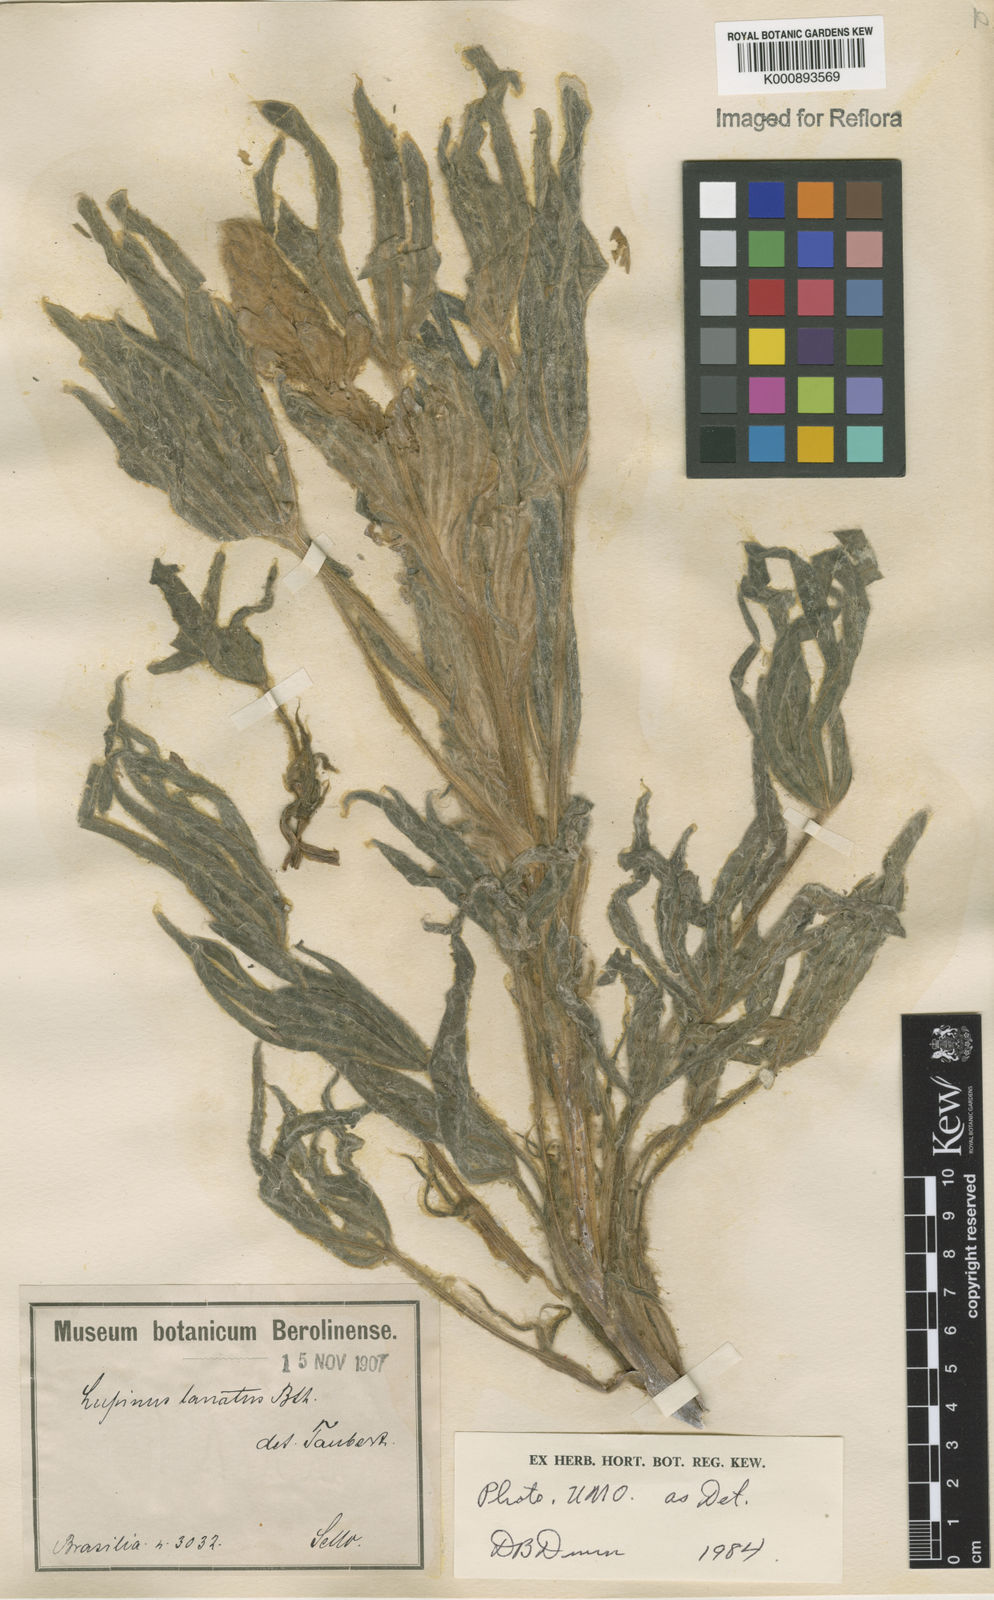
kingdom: Plantae
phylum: Tracheophyta
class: Magnoliopsida
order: Fabales
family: Fabaceae
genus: Lupinus
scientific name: Lupinus lanatus
